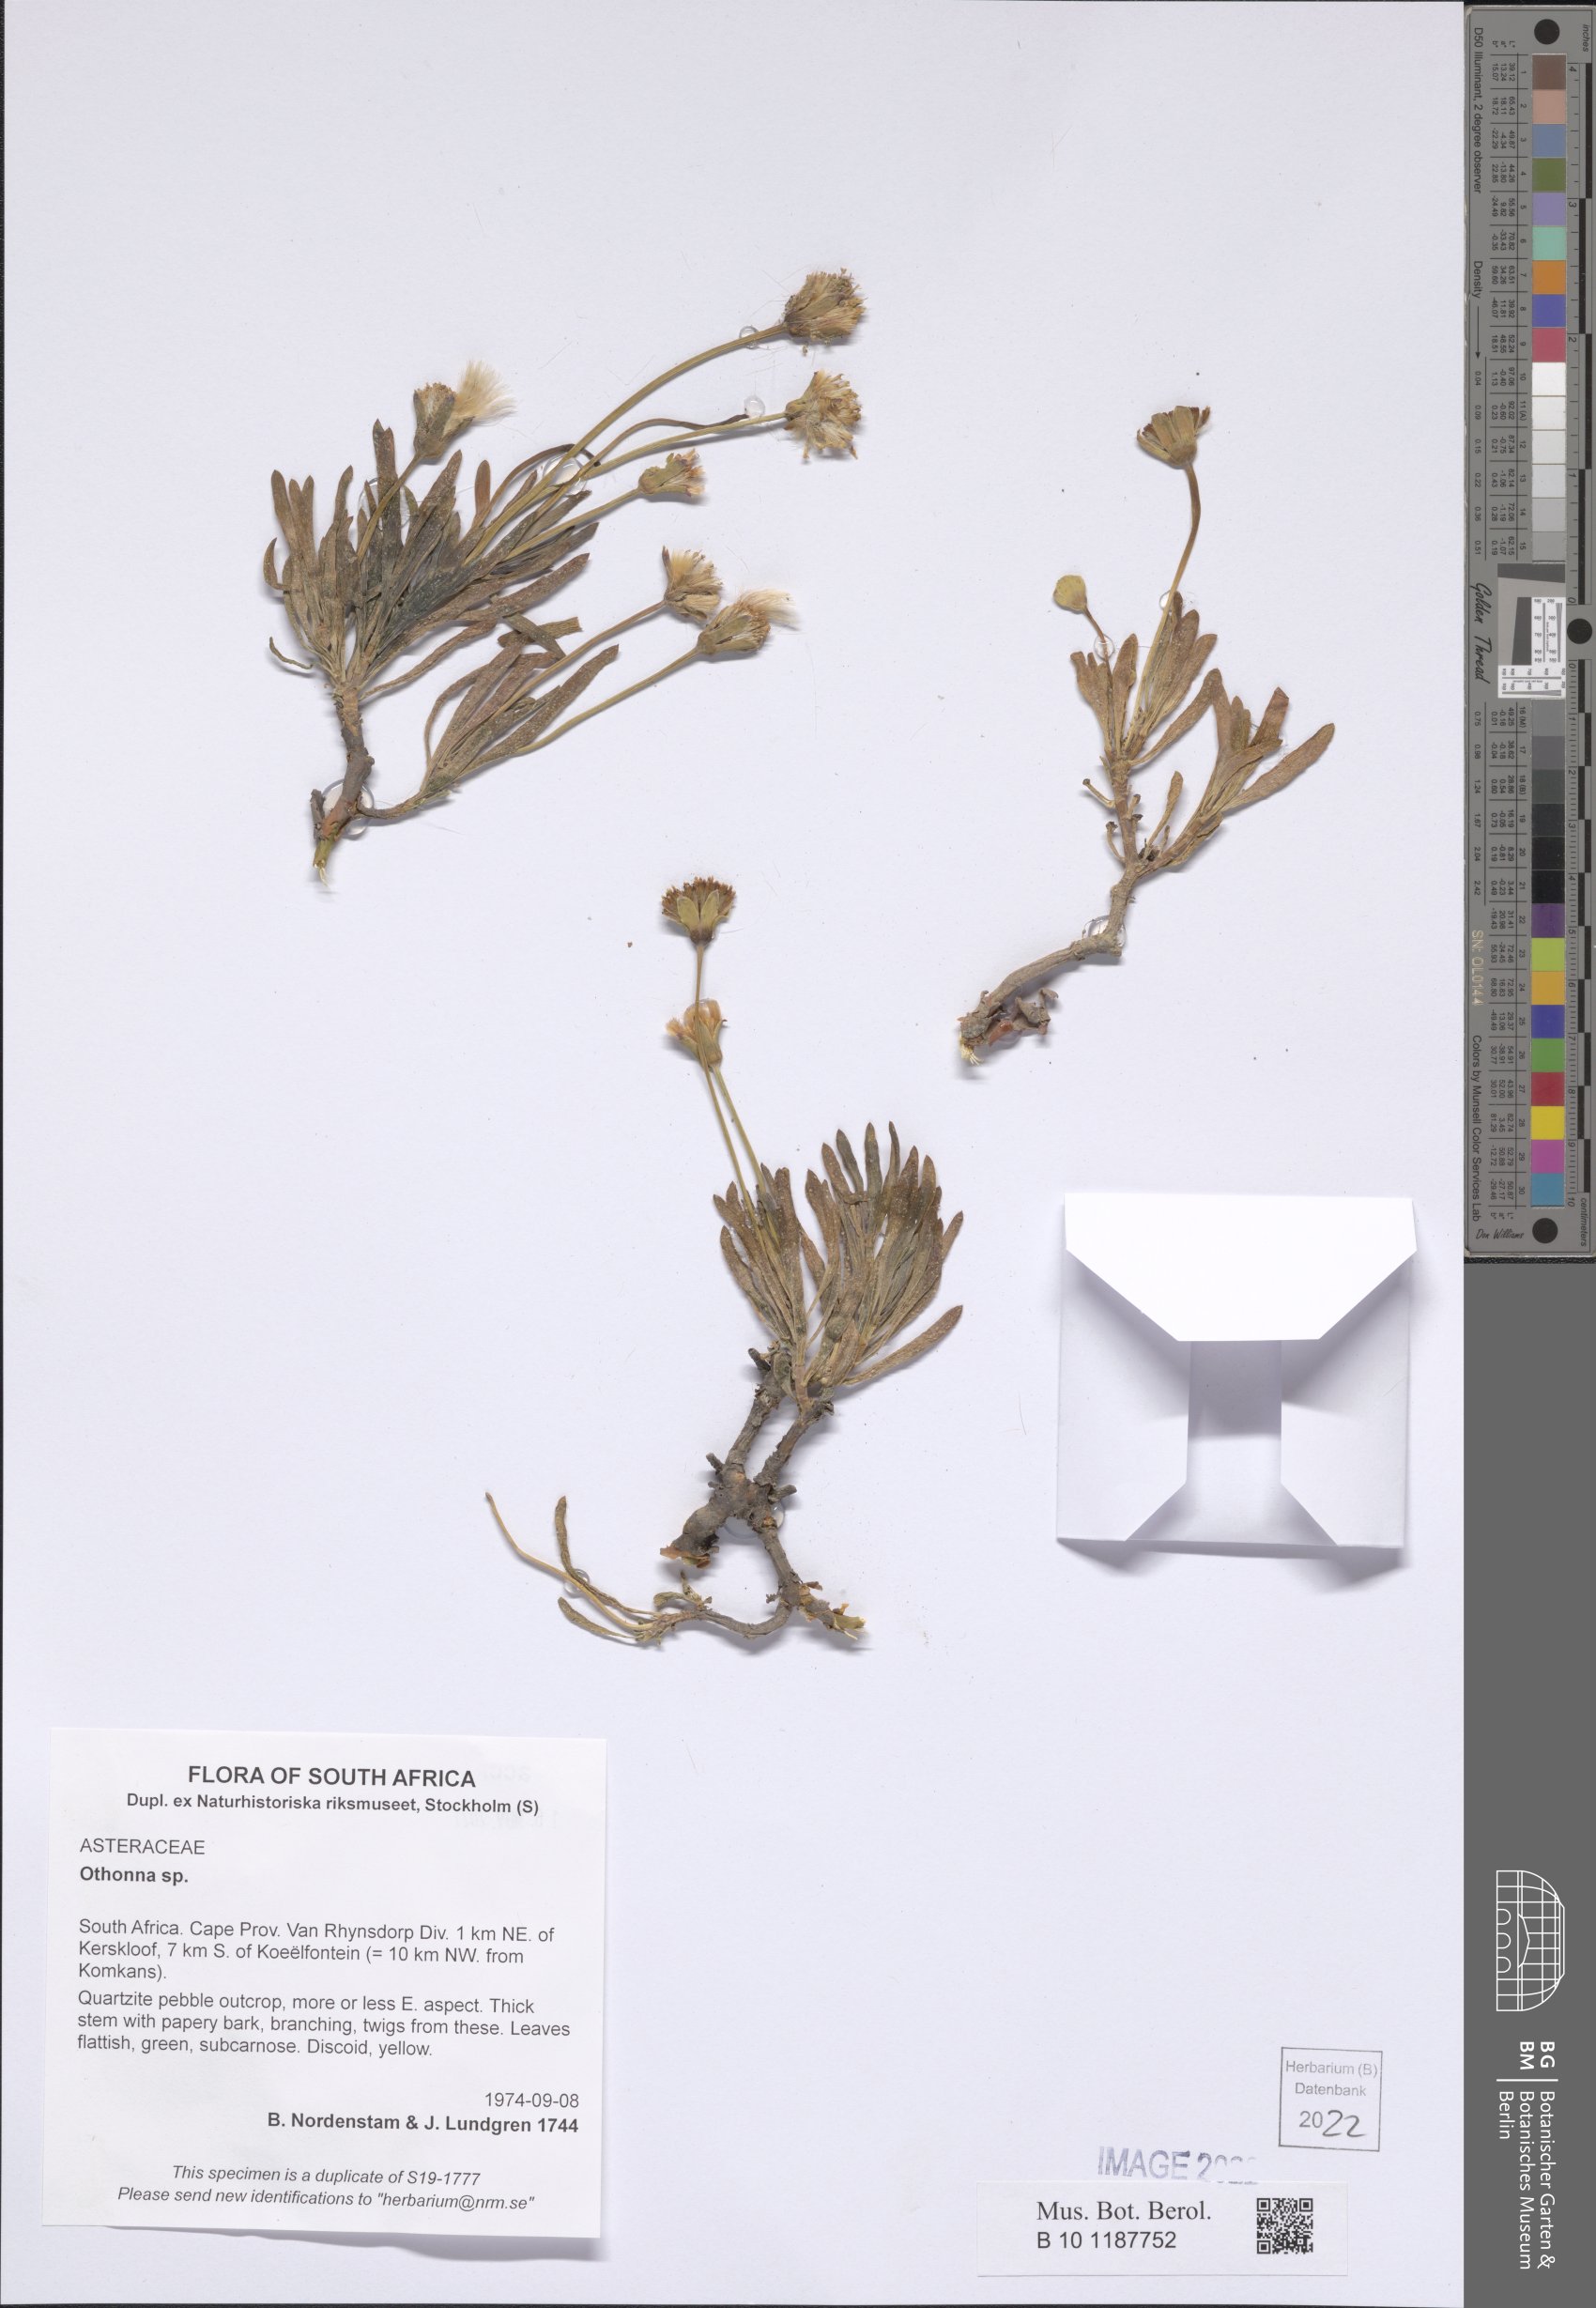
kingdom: Plantae
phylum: Tracheophyta
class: Magnoliopsida
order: Asterales
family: Asteraceae
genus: Othonna
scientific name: Othonna
